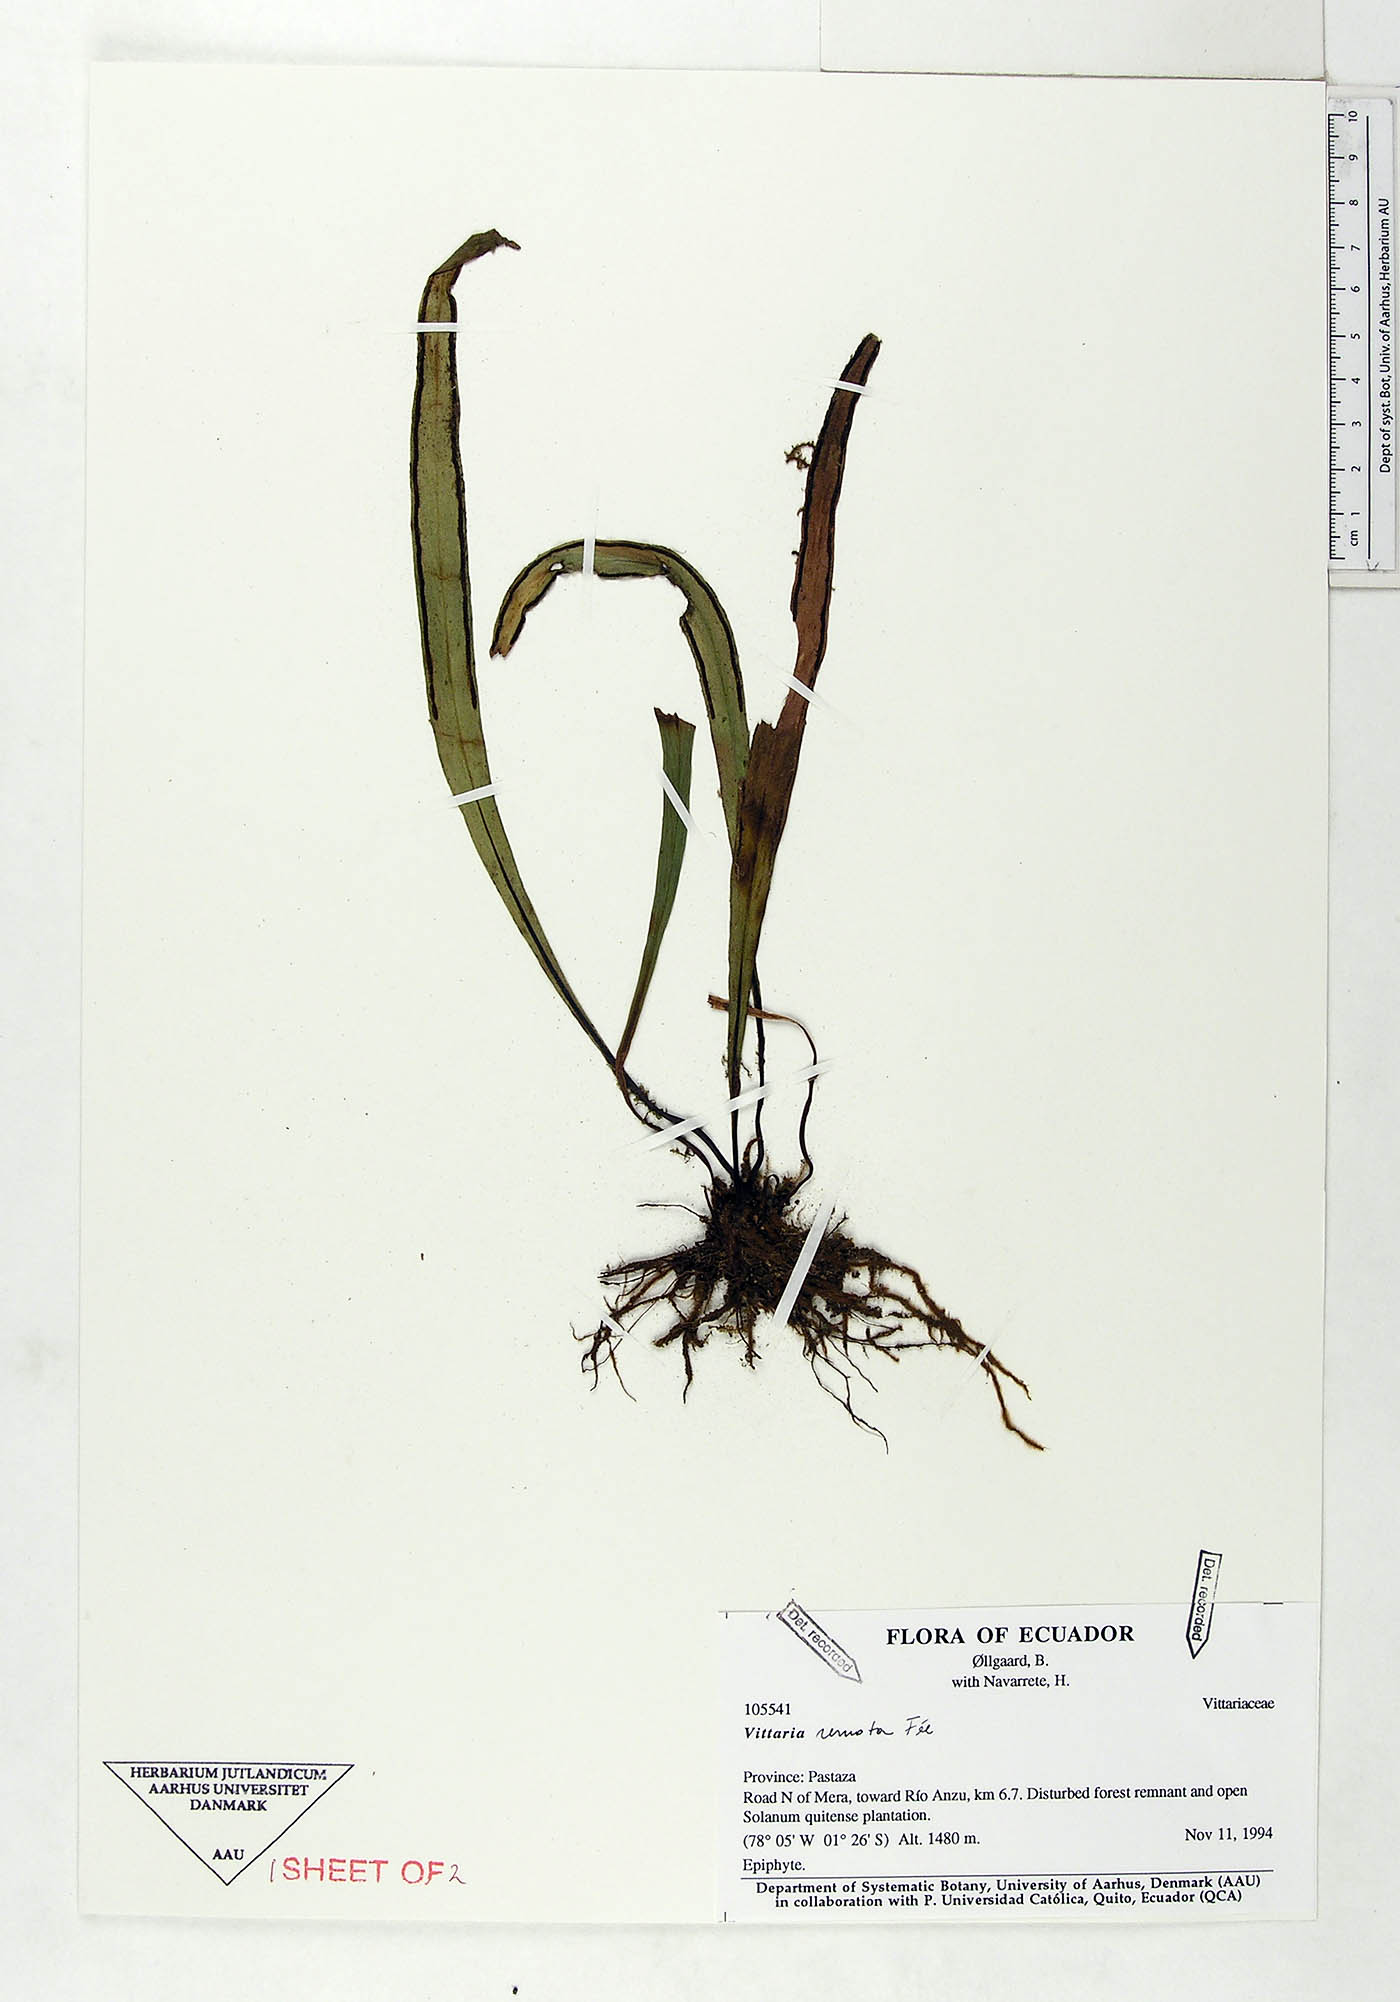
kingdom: Plantae
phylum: Tracheophyta
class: Polypodiopsida
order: Polypodiales
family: Pteridaceae
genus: Radiovittaria
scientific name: Radiovittaria remota
